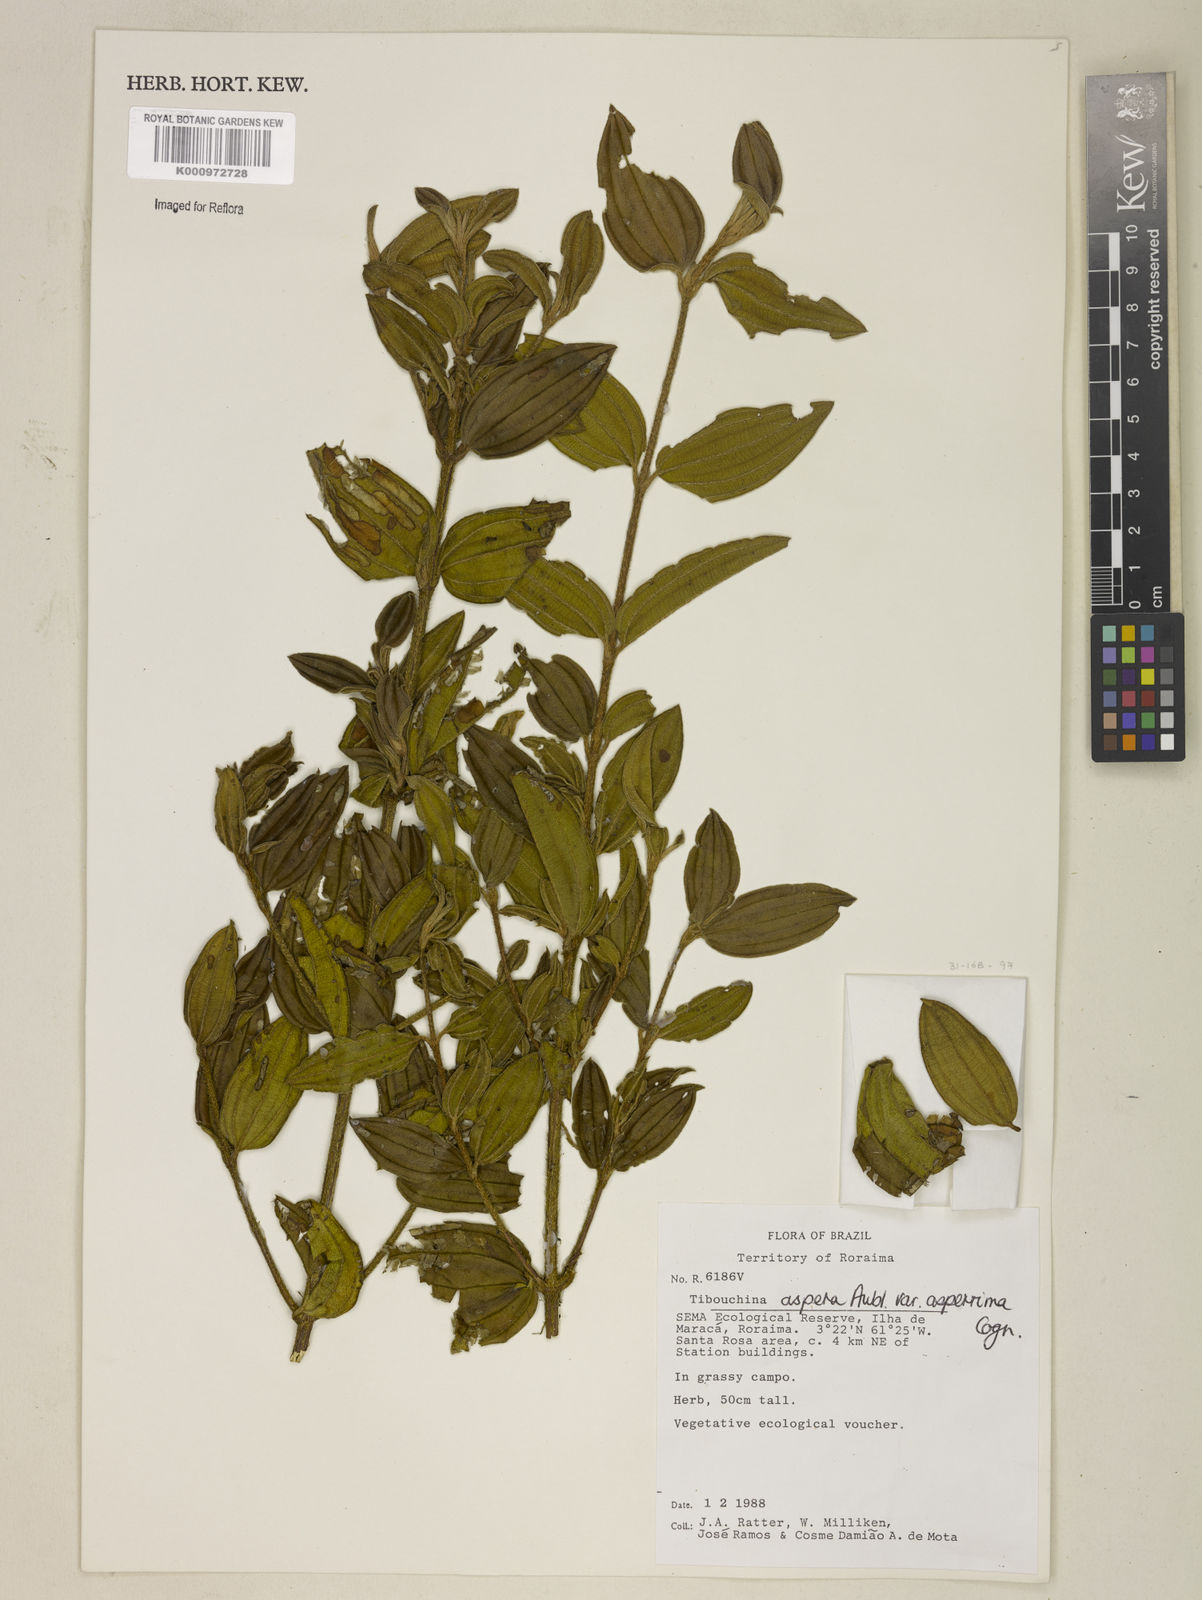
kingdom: Plantae
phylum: Tracheophyta
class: Magnoliopsida
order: Myrtales
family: Melastomataceae
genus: Tibouchina
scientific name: Tibouchina aspera
